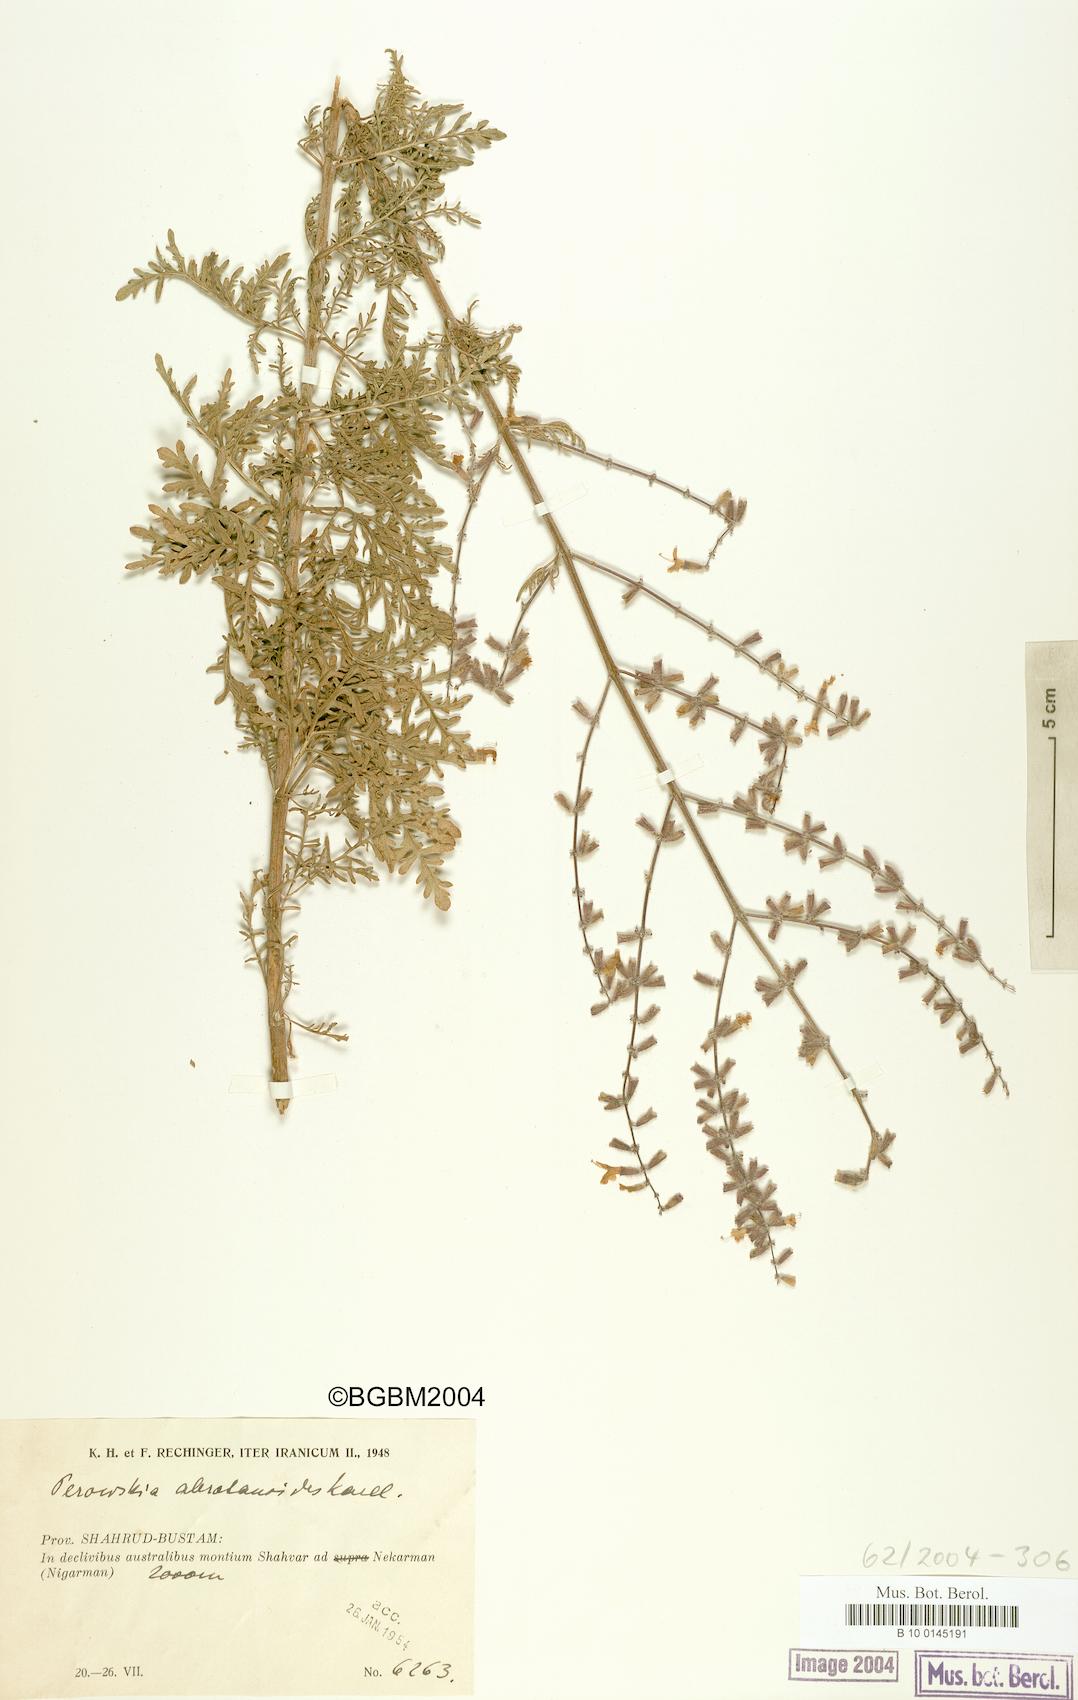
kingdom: Plantae
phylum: Tracheophyta
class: Magnoliopsida
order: Lamiales
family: Lamiaceae
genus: Salvia
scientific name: Salvia abrotanoides
